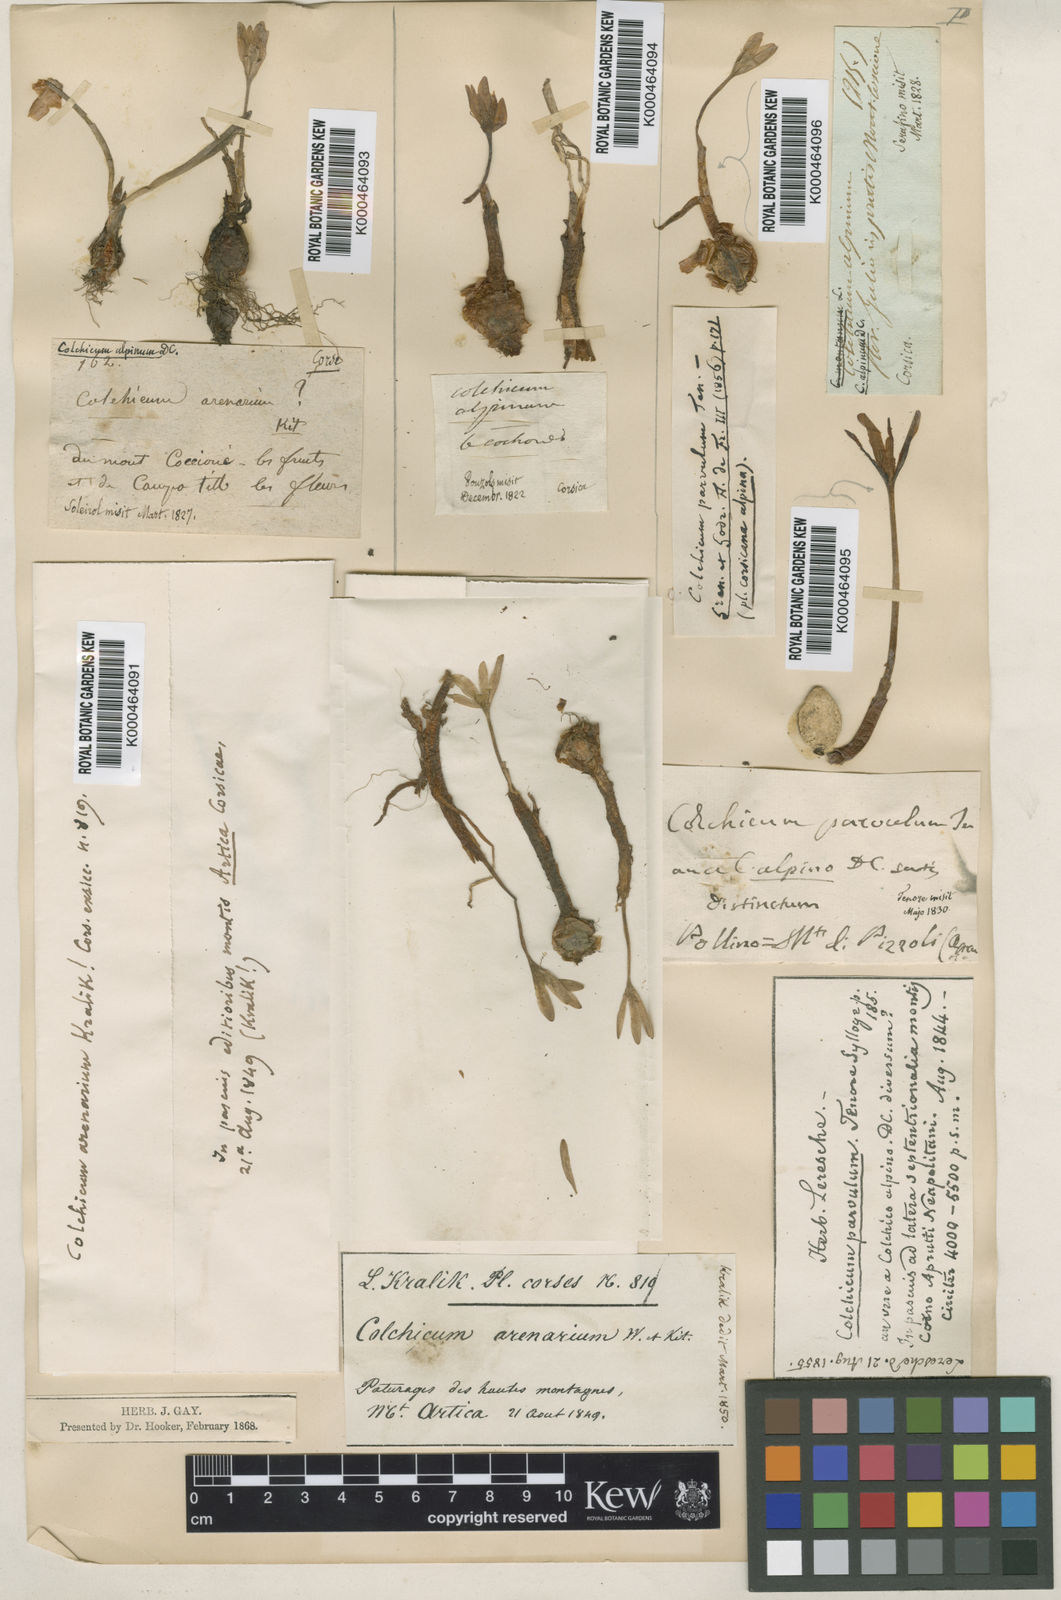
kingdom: Plantae
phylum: Tracheophyta
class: Liliopsida
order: Liliales
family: Colchicaceae
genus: Colchicum
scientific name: Colchicum alpinum
